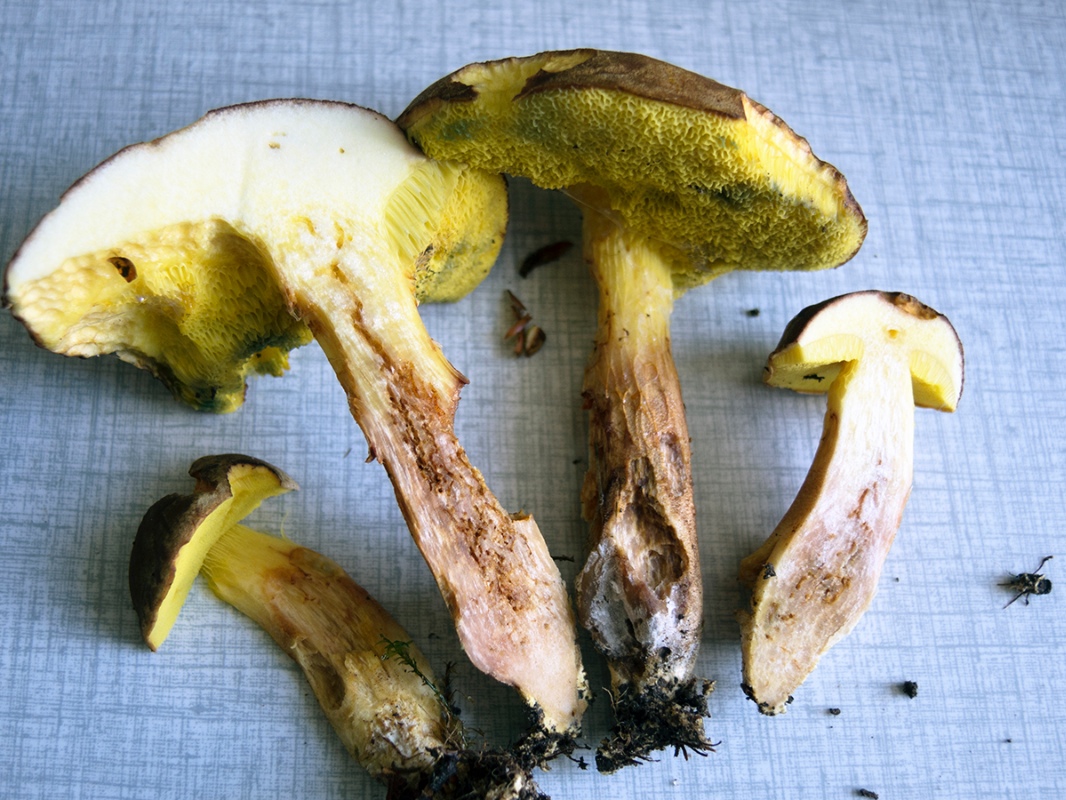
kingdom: Fungi
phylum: Basidiomycota
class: Agaricomycetes
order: Boletales
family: Boletaceae
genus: Xerocomus
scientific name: Xerocomus ferrugineus
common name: vaskeskinds-rørhat
